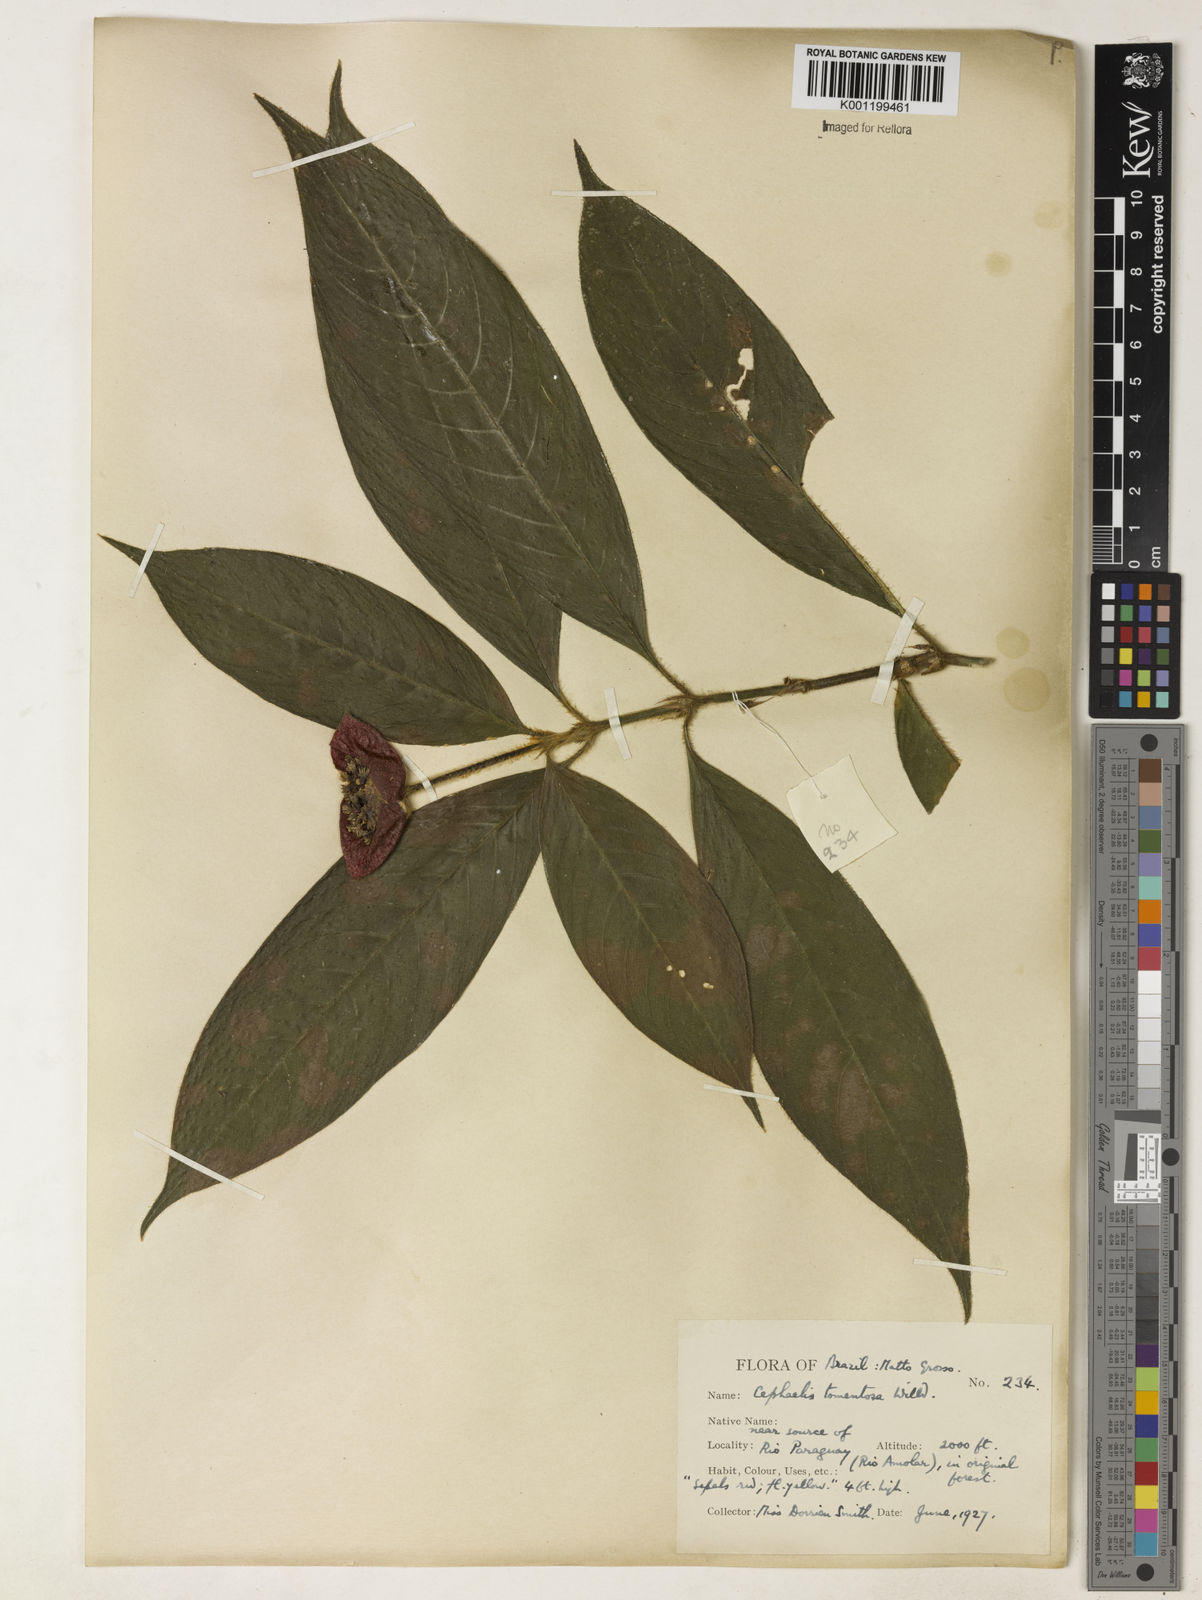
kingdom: Plantae
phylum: Tracheophyta
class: Magnoliopsida
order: Gentianales
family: Rubiaceae
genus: Psychotria
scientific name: Psychotria
